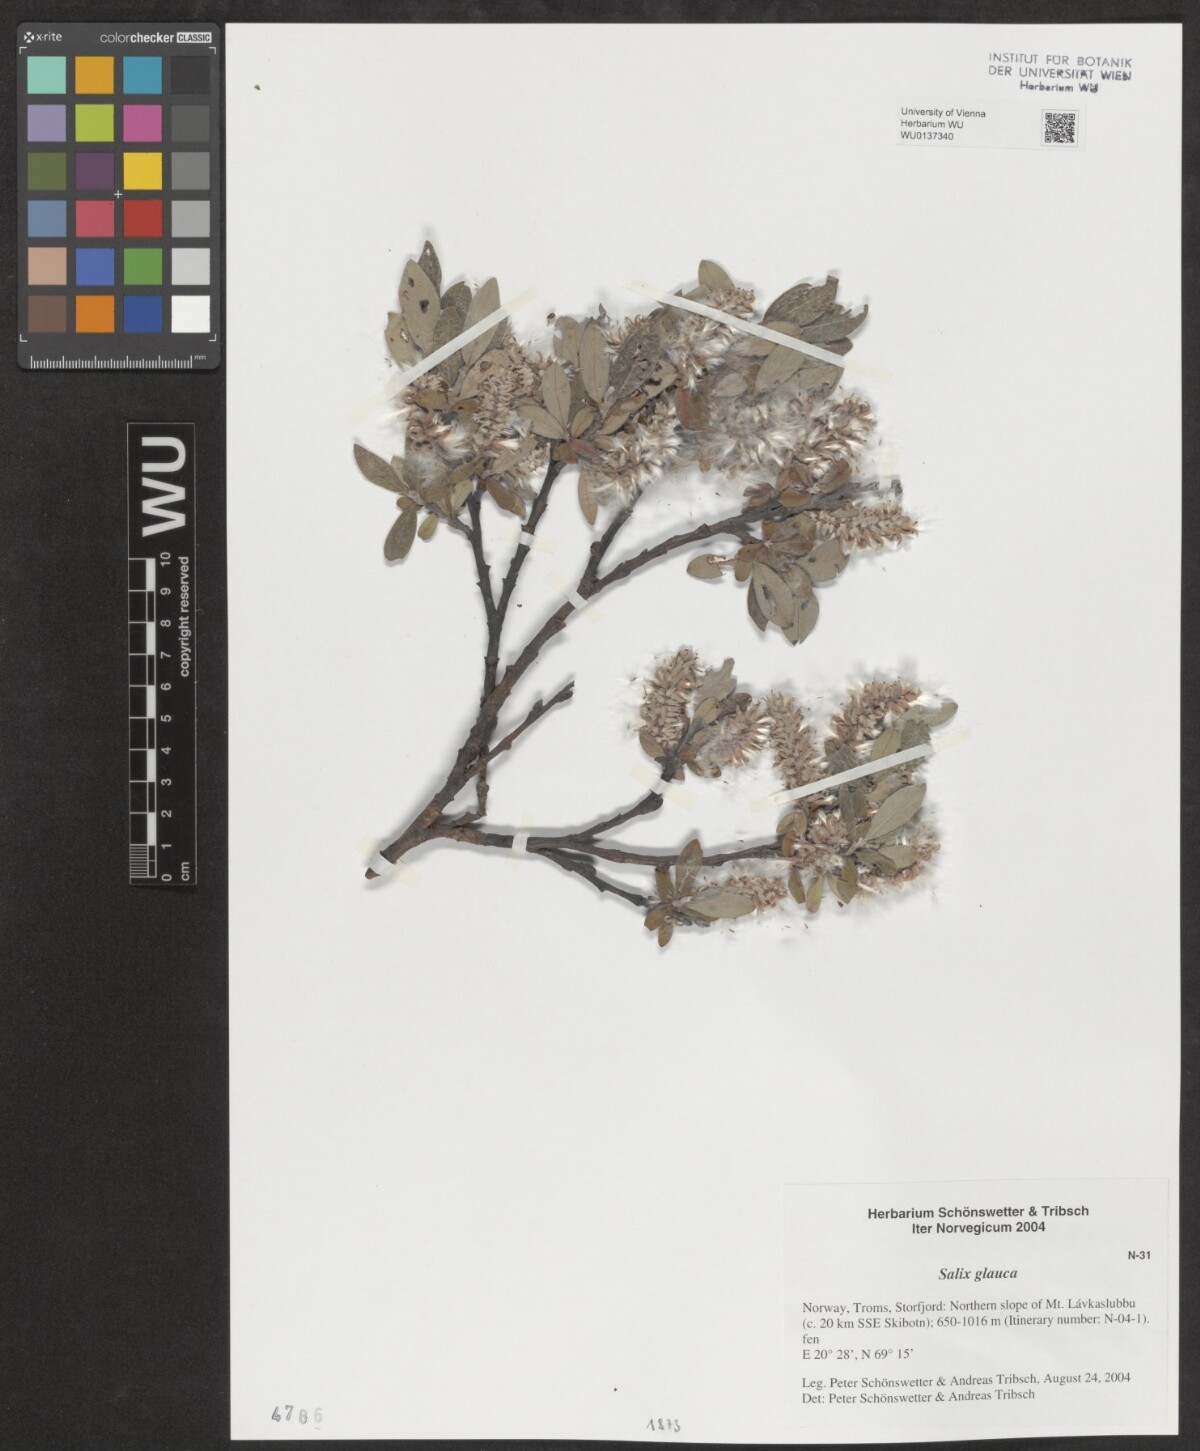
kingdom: Plantae
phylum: Tracheophyta
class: Magnoliopsida
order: Malpighiales
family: Salicaceae
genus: Salix
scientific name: Salix glauca
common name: Glaucous willow
